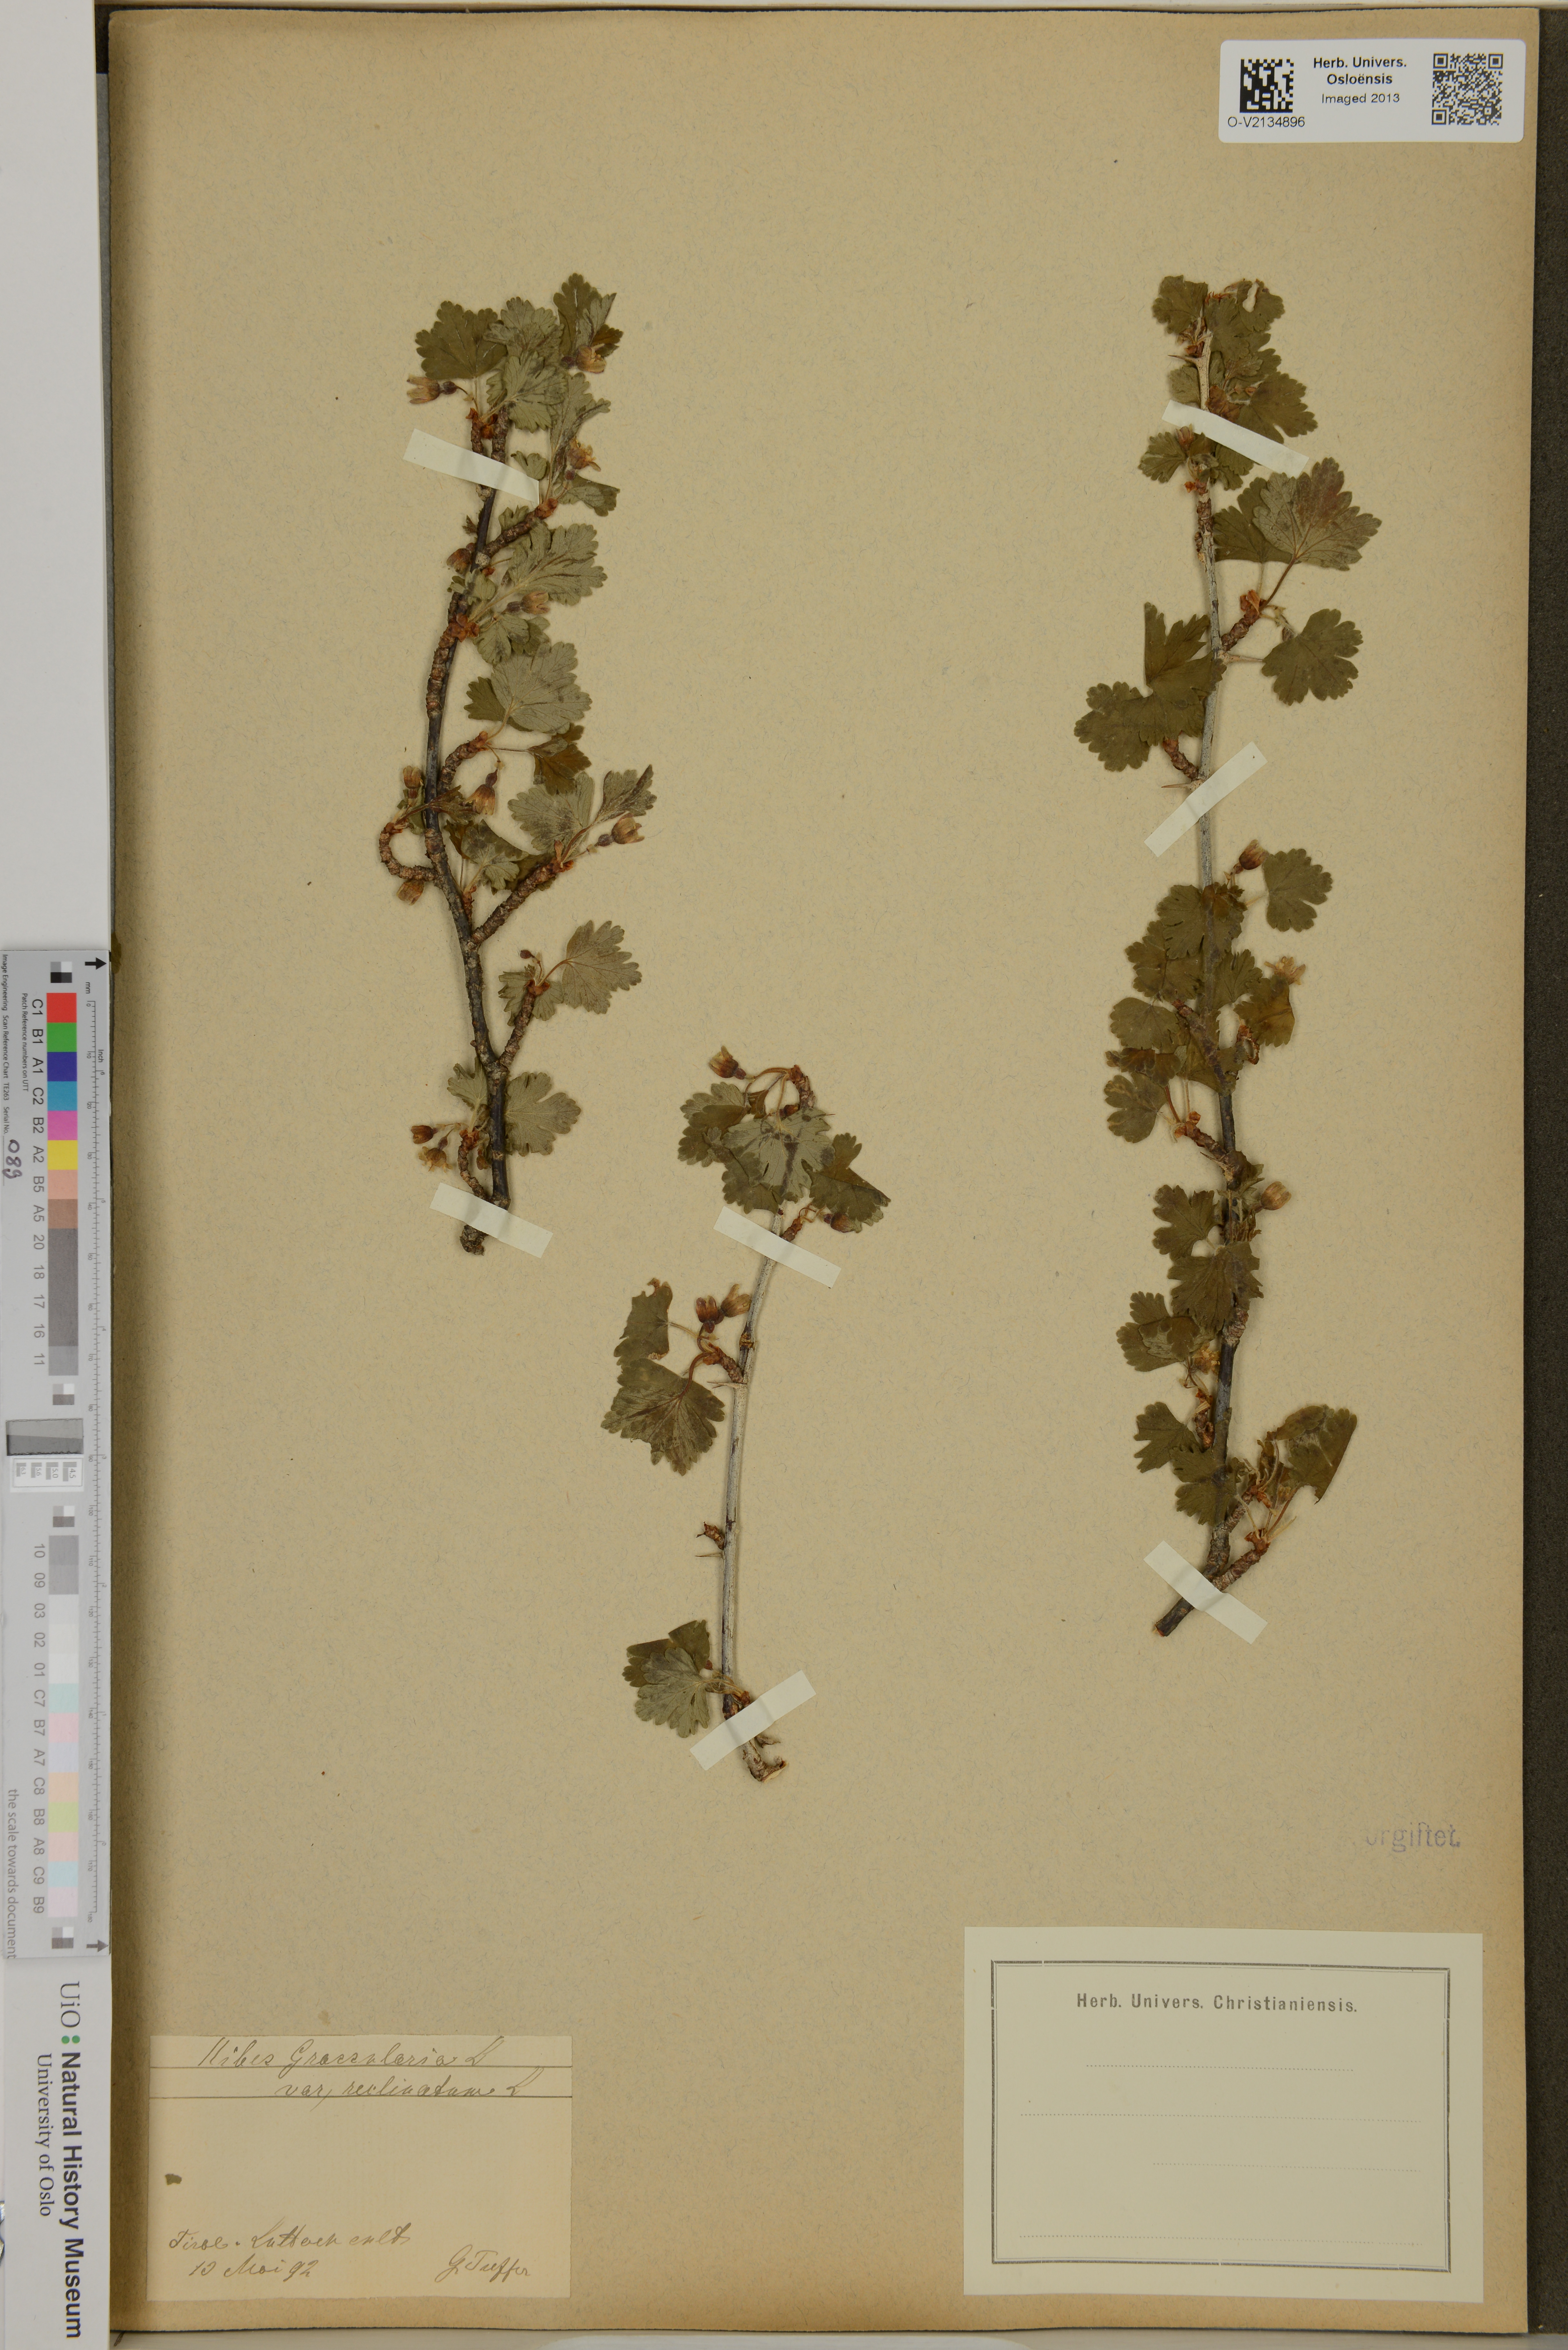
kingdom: Plantae
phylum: Tracheophyta
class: Magnoliopsida
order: Saxifragales
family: Grossulariaceae
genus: Ribes
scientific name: Ribes uva-crispa
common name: Gooseberry
